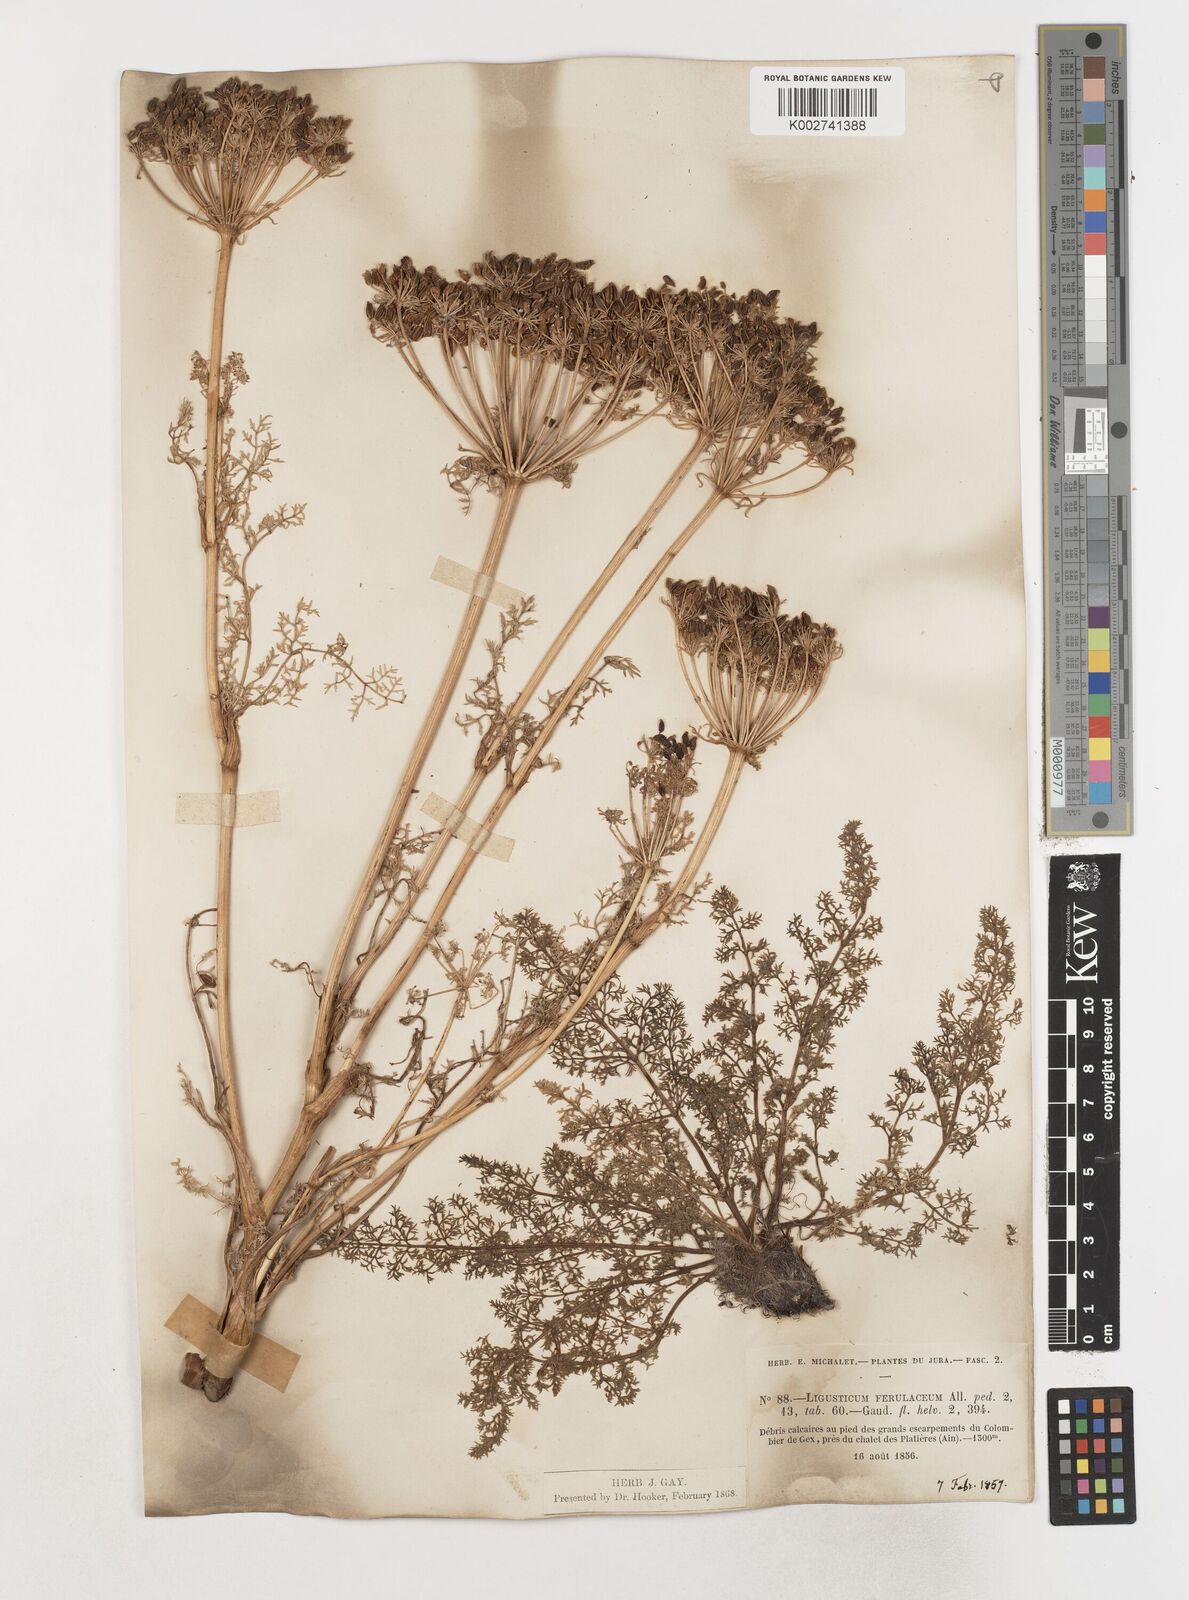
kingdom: Plantae
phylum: Tracheophyta
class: Magnoliopsida
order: Apiales
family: Apiaceae
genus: Coristospermum
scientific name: Coristospermum ferulaceum
